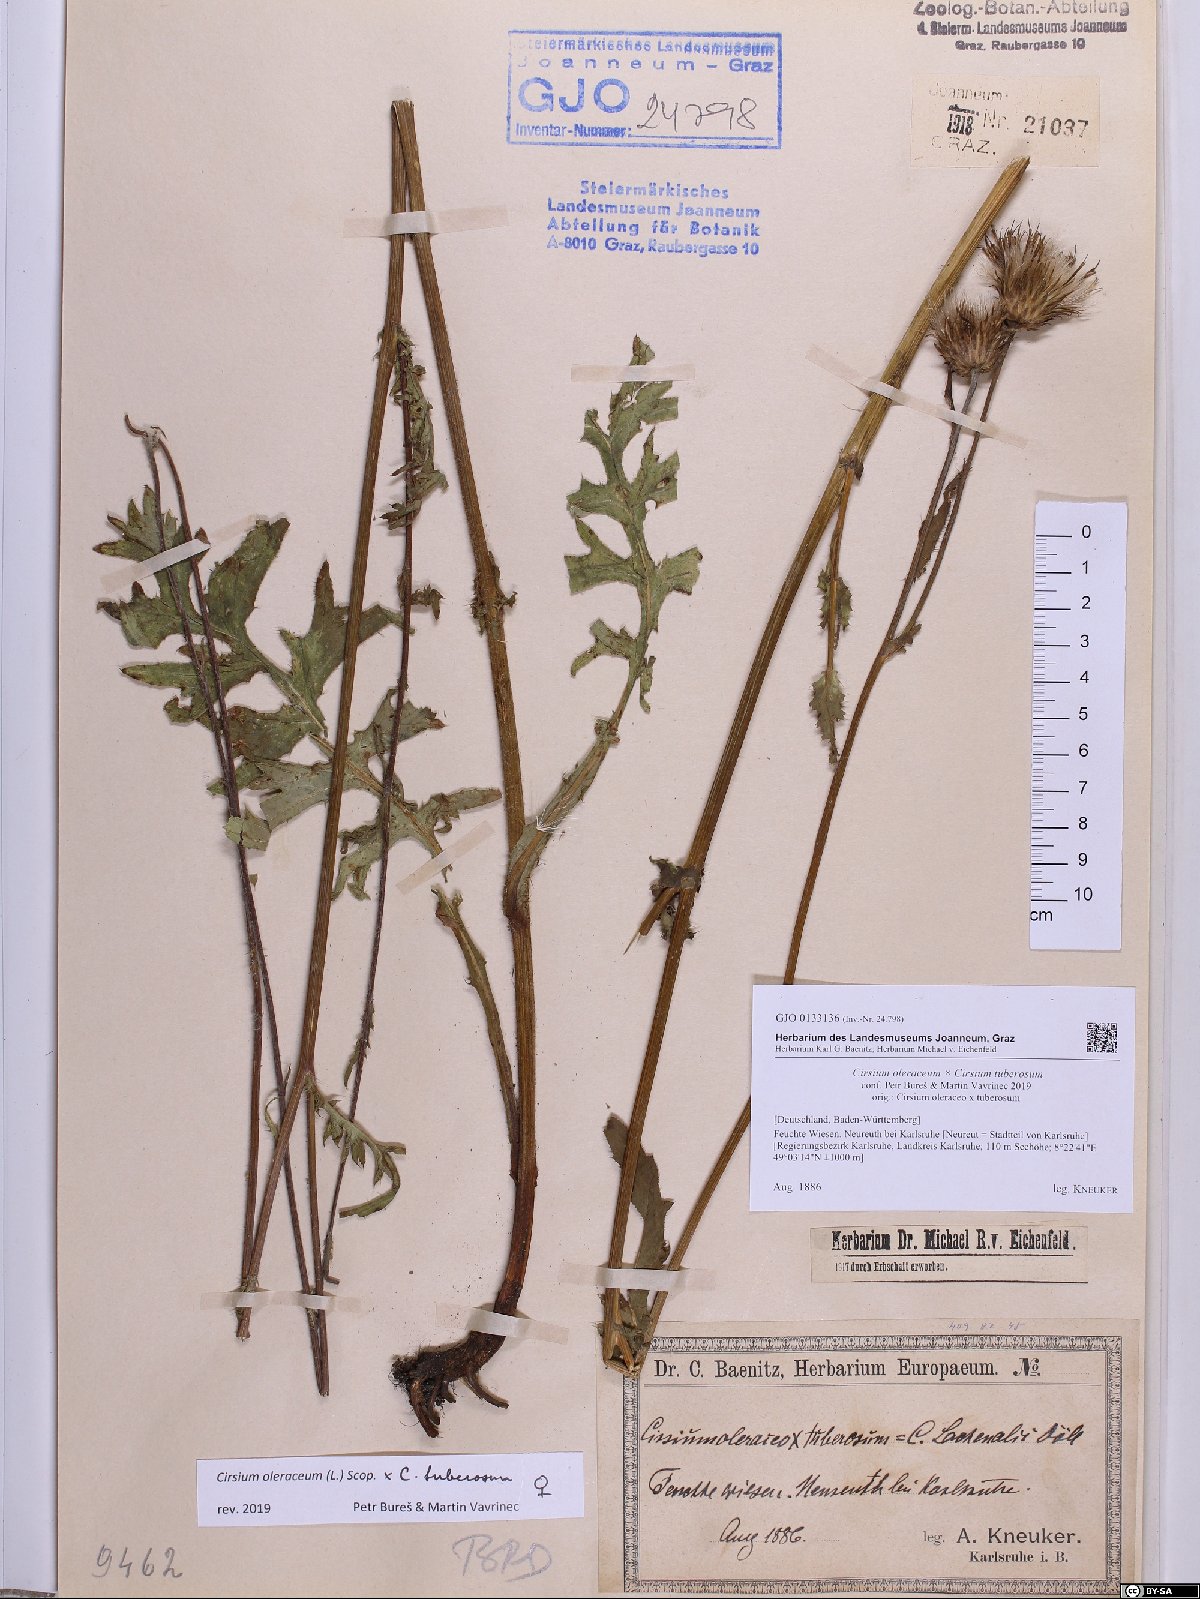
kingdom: Plantae
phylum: Tracheophyta
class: Magnoliopsida
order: Asterales
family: Asteraceae
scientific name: Asteraceae
